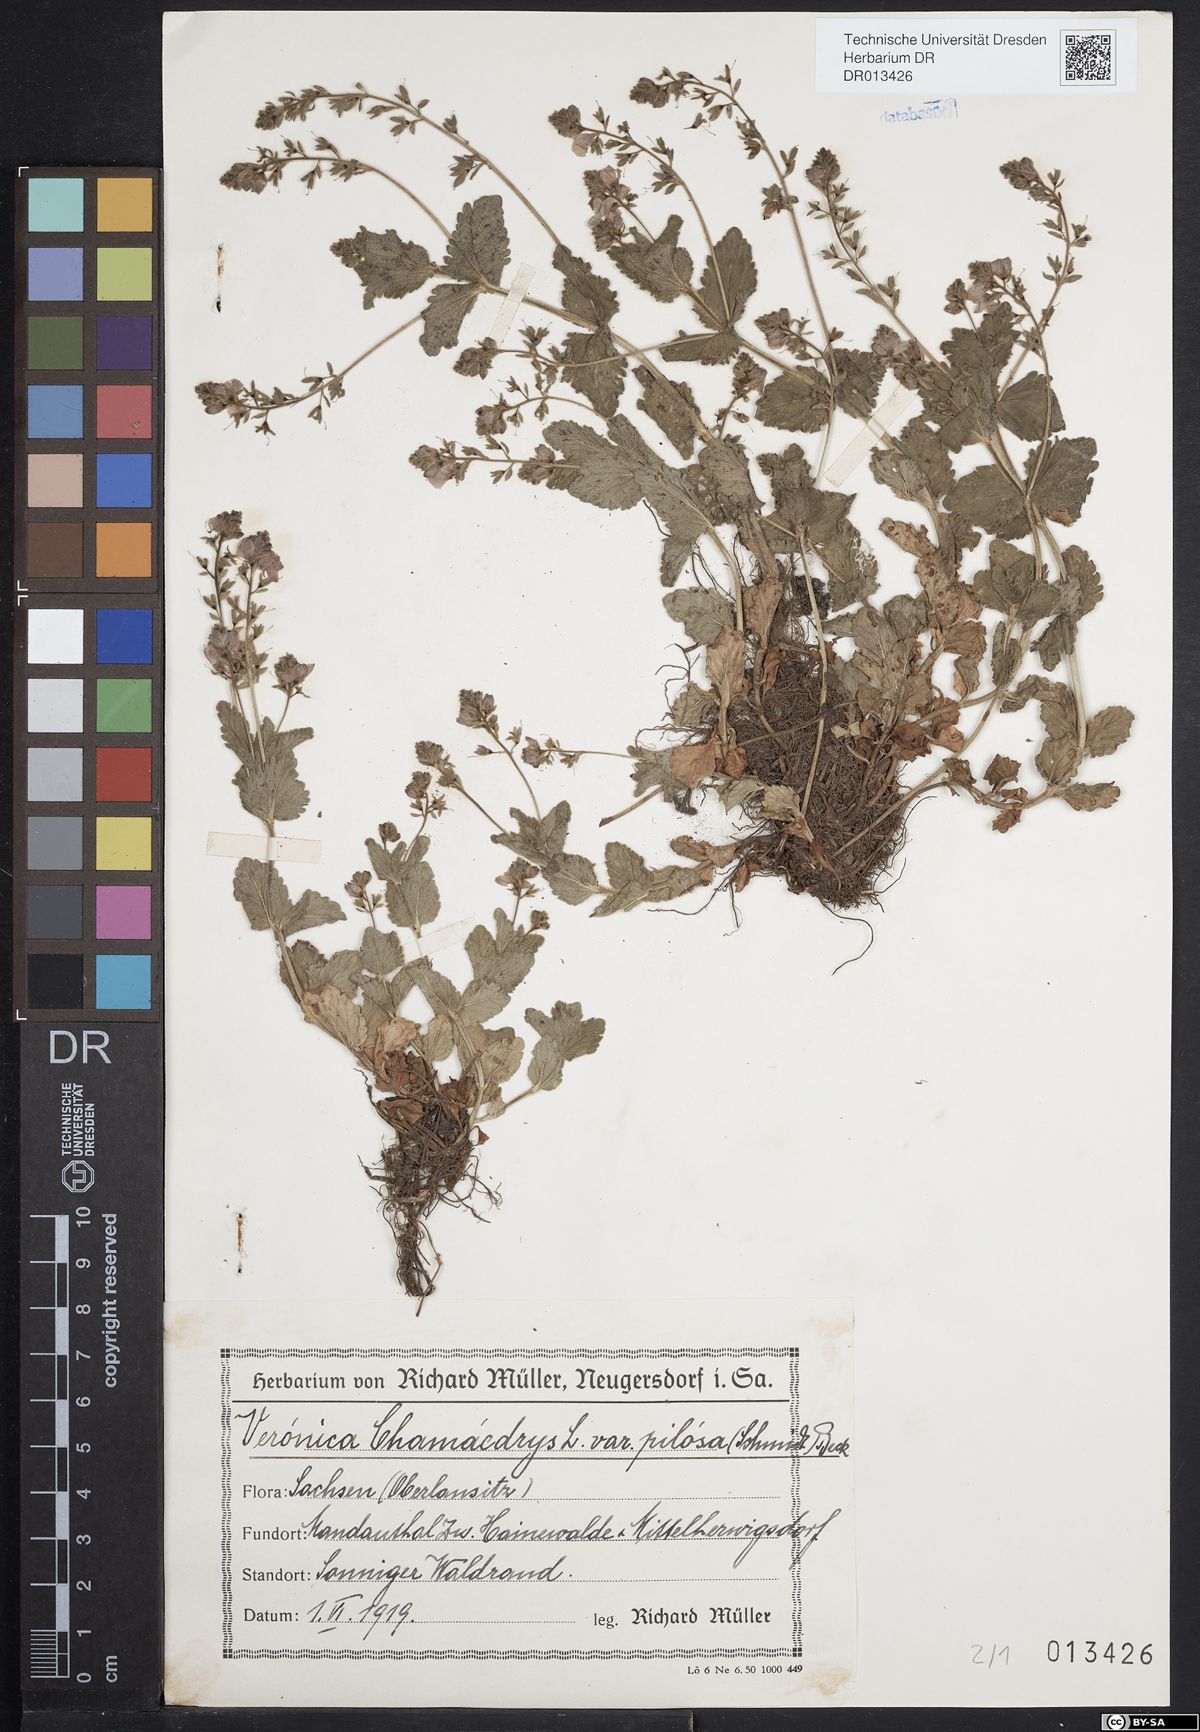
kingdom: Plantae
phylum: Tracheophyta
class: Magnoliopsida
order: Lamiales
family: Plantaginaceae
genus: Veronica
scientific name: Veronica chamaedrys
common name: Germander speedwell
